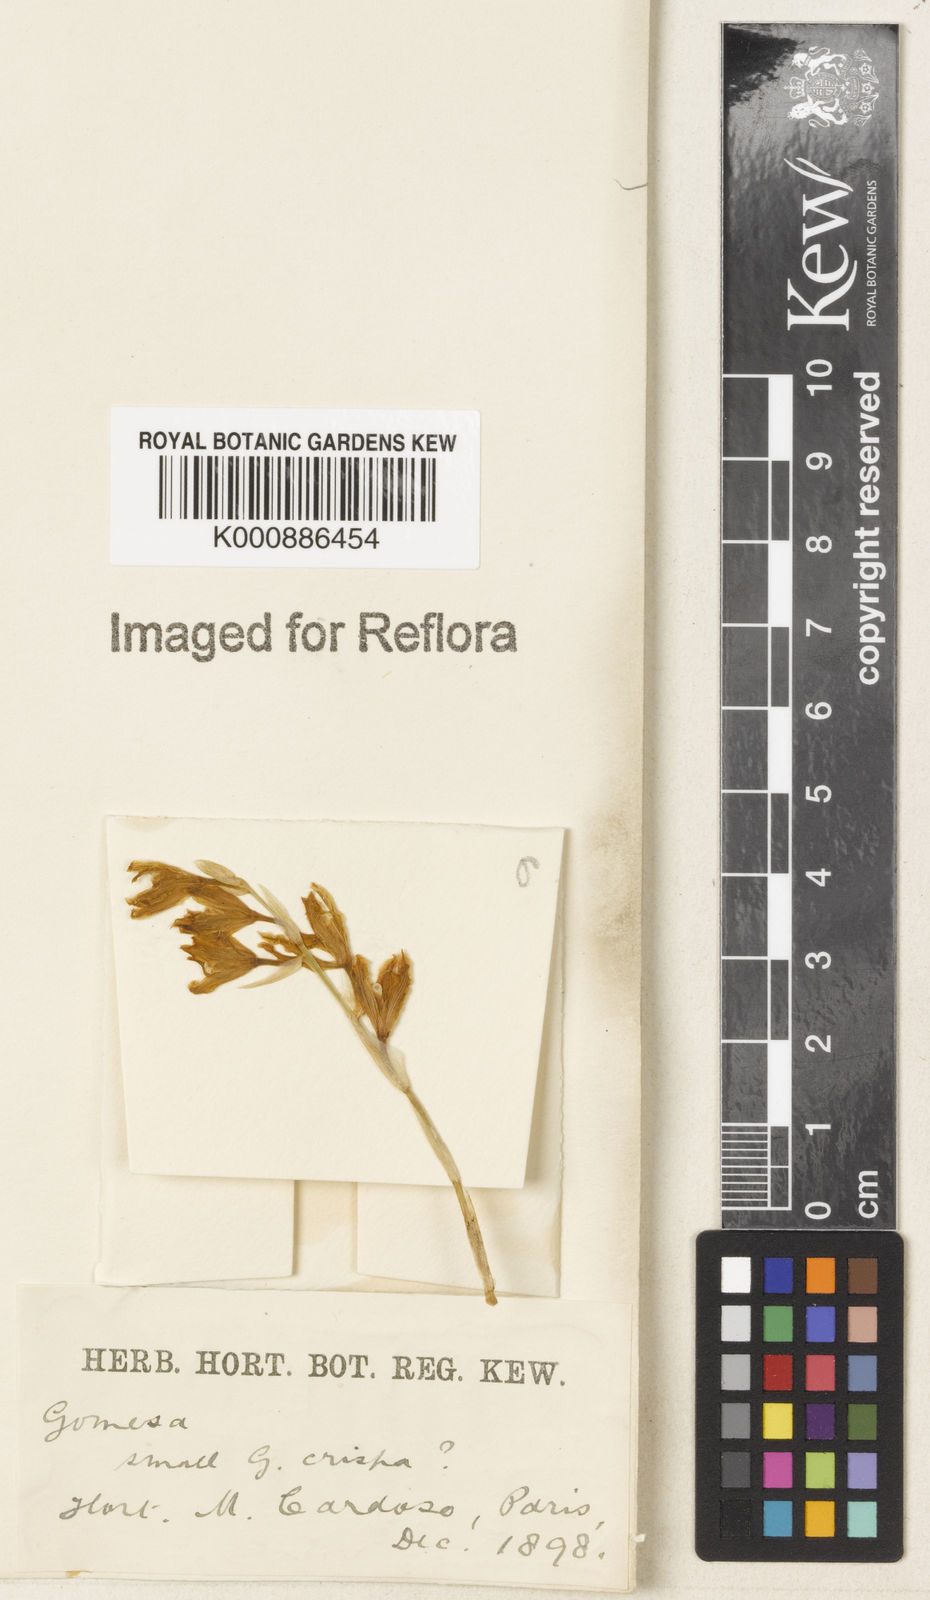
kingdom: Plantae
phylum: Tracheophyta
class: Liliopsida
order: Asparagales
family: Orchidaceae
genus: Gomesa
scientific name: Gomesa recurva
